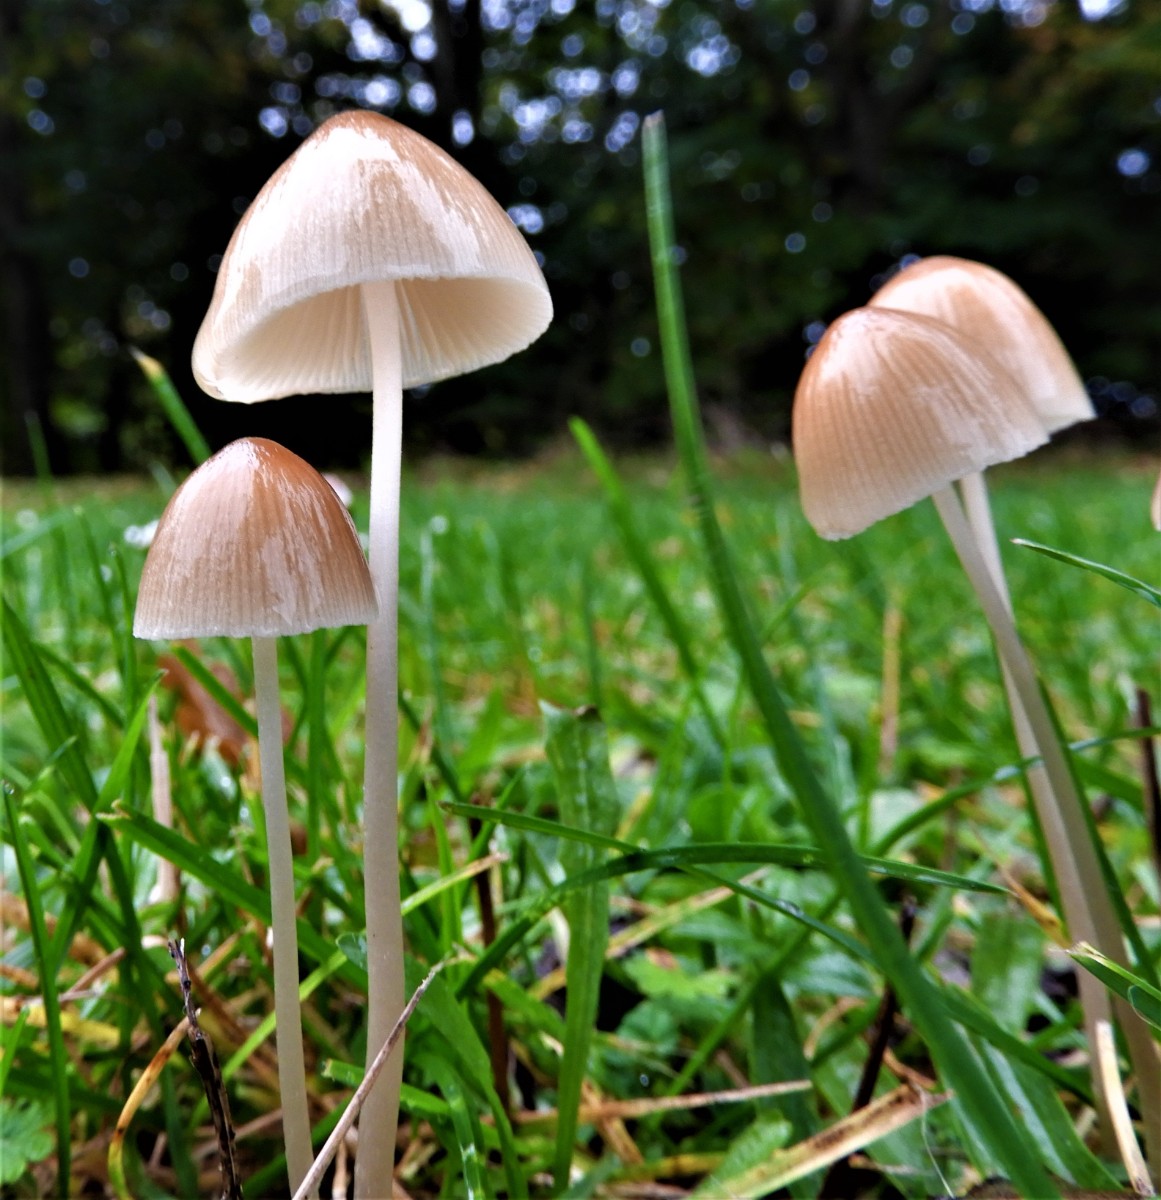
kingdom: Fungi
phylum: Basidiomycota
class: Agaricomycetes
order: Agaricales
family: Psathyrellaceae
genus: Britzelmayria
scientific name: Britzelmayria multipedata
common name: knippe-mørkhat
